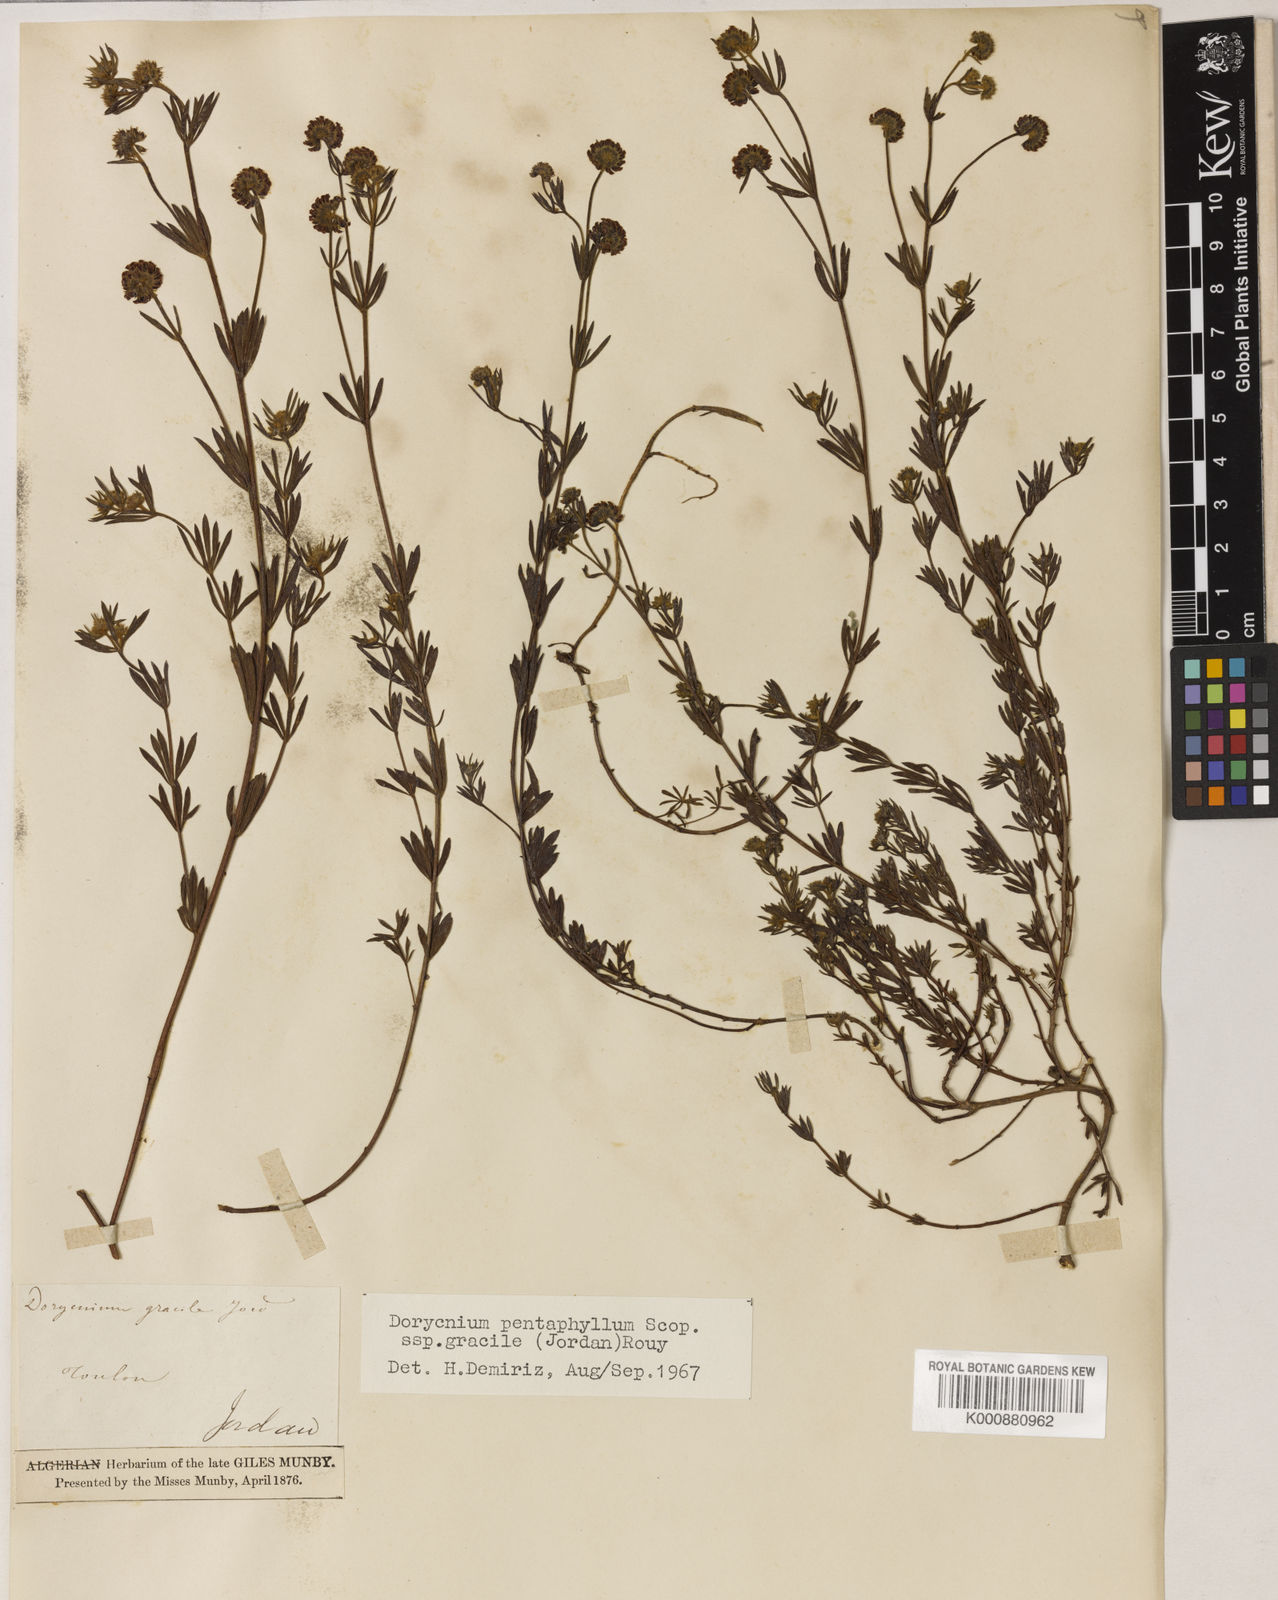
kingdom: Plantae
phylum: Tracheophyta
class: Magnoliopsida
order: Fabales
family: Fabaceae
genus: Lotus
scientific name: Lotus jordanii
